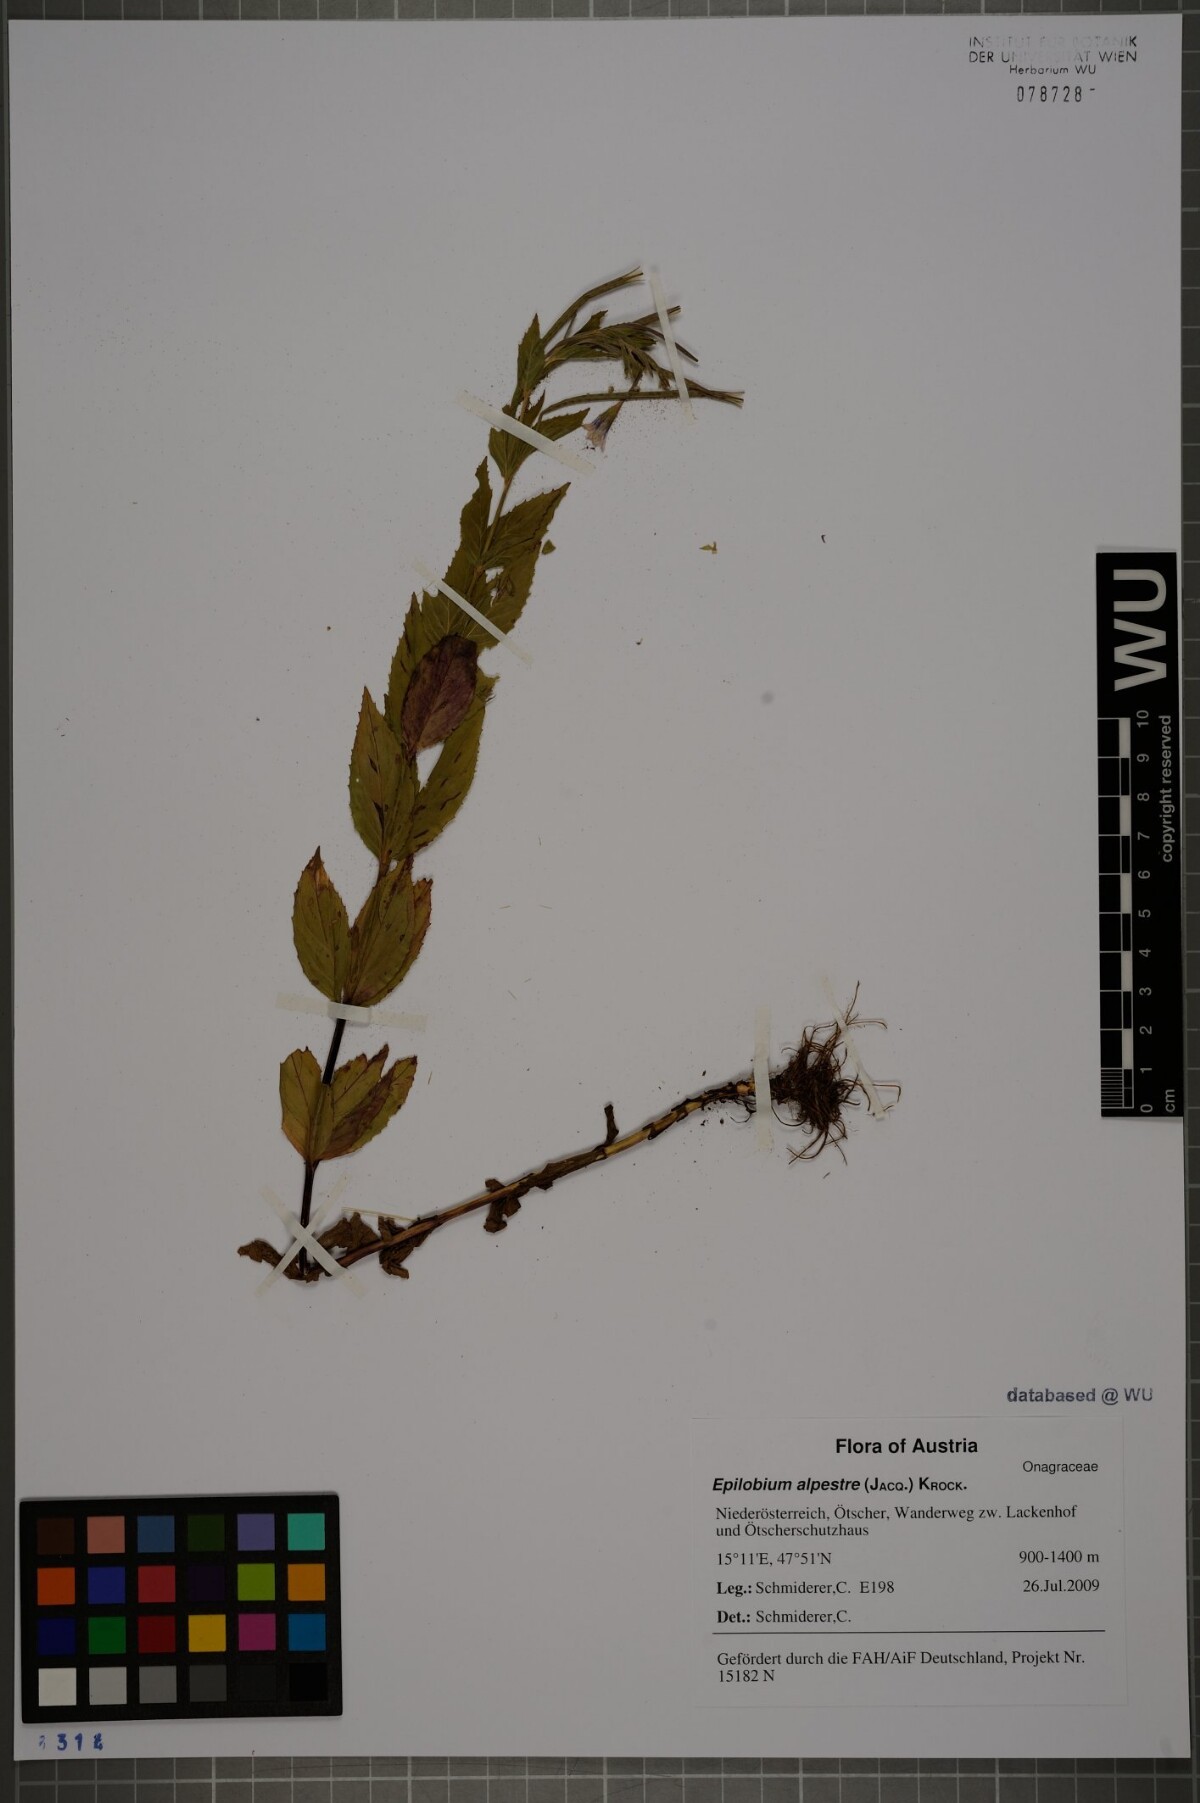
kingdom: Plantae
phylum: Tracheophyta
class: Magnoliopsida
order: Myrtales
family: Onagraceae
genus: Epilobium
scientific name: Epilobium alpestre
